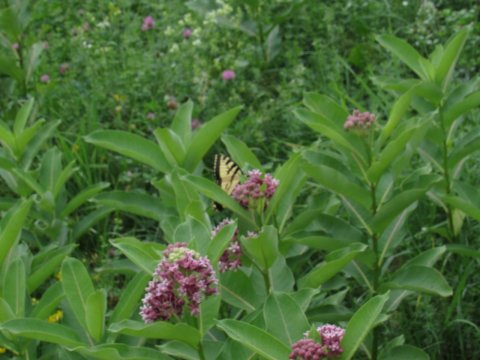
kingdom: Animalia
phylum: Arthropoda
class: Insecta
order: Lepidoptera
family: Papilionidae
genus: Pterourus
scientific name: Pterourus
